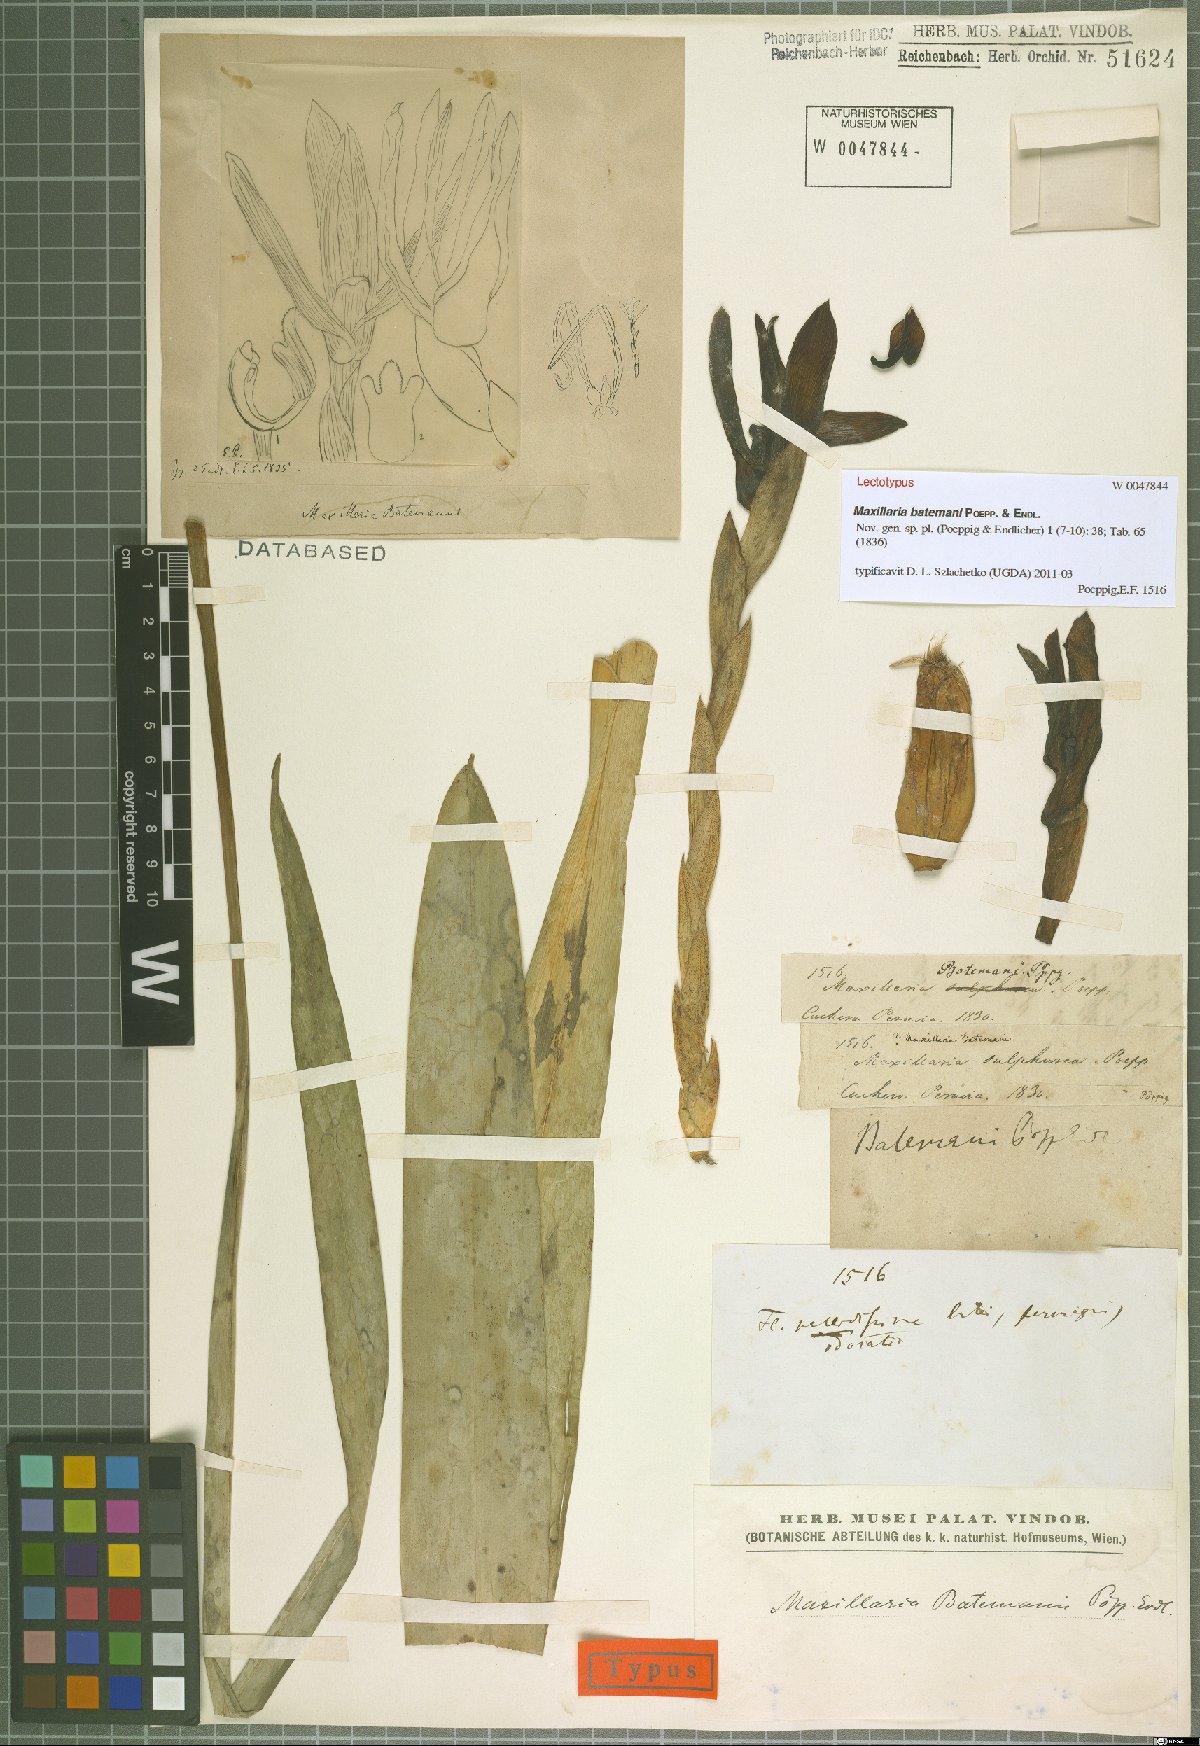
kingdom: Plantae
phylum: Tracheophyta
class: Liliopsida
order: Asparagales
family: Orchidaceae
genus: Maxillaria
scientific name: Maxillaria batemanii
